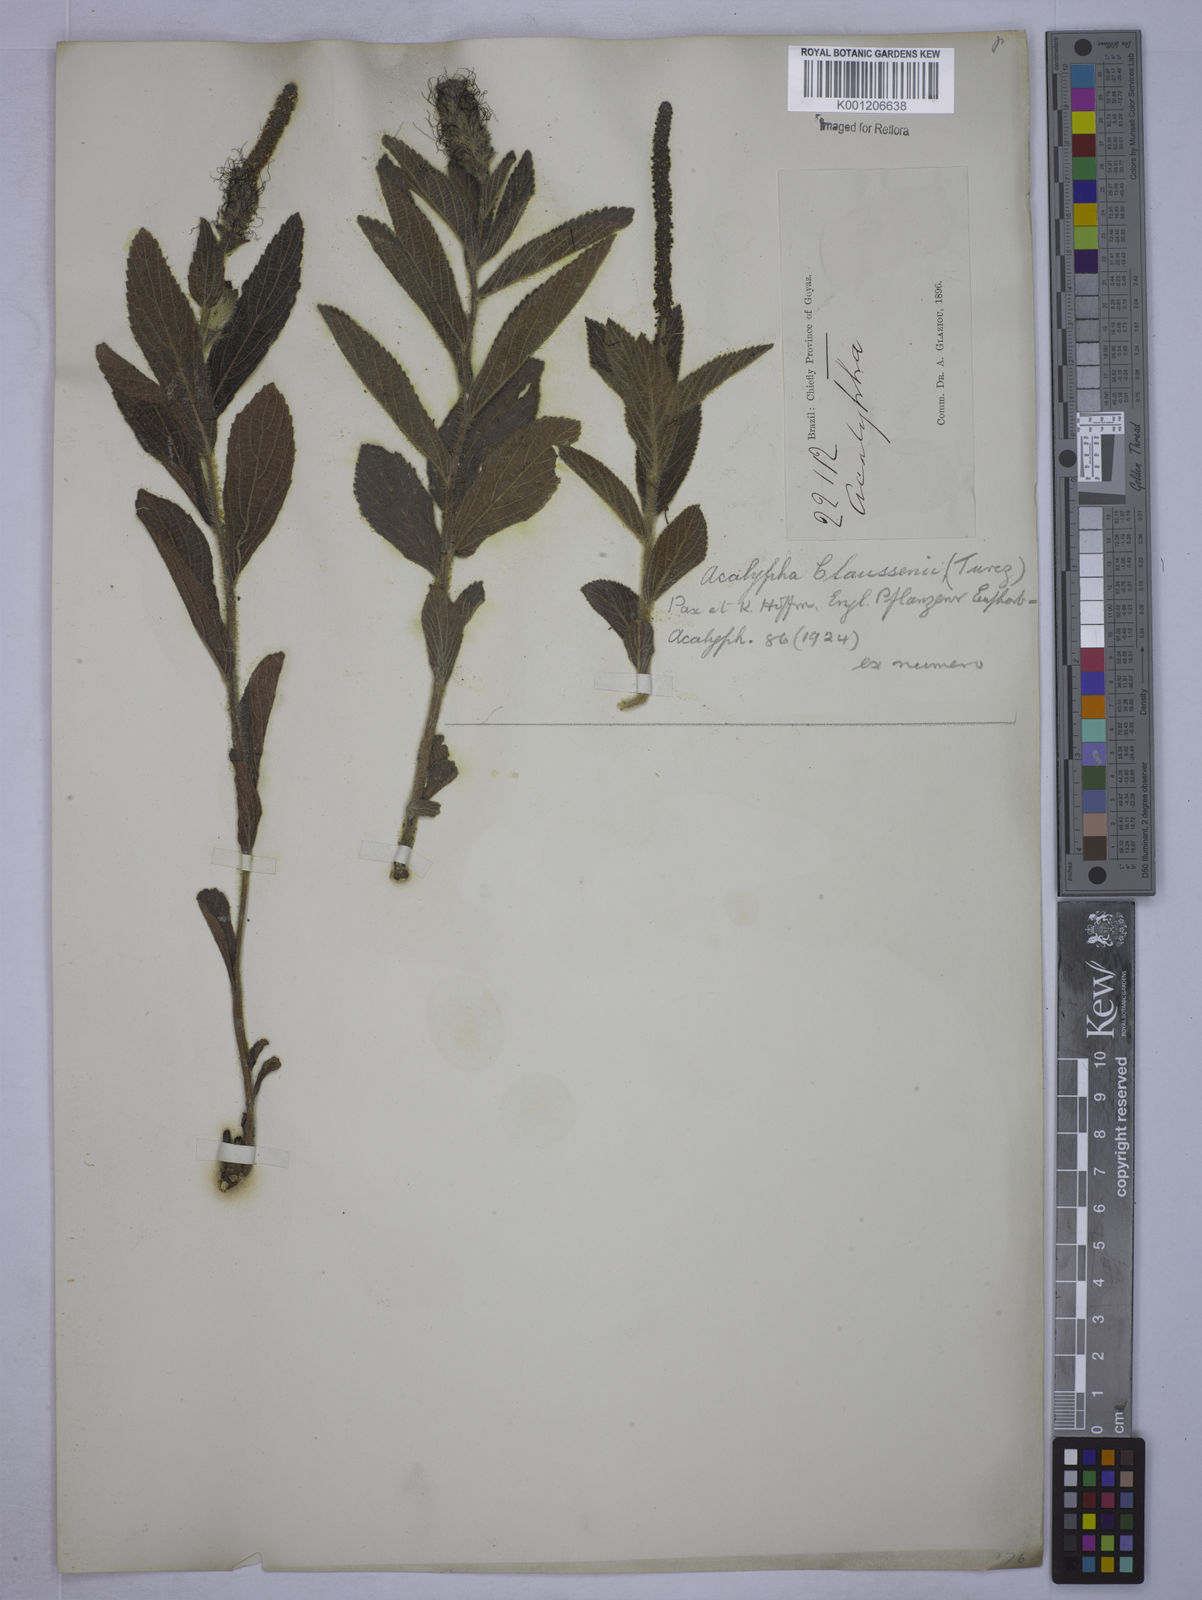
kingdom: Plantae
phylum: Tracheophyta
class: Magnoliopsida
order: Malpighiales
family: Euphorbiaceae
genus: Acalypha
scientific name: Acalypha
